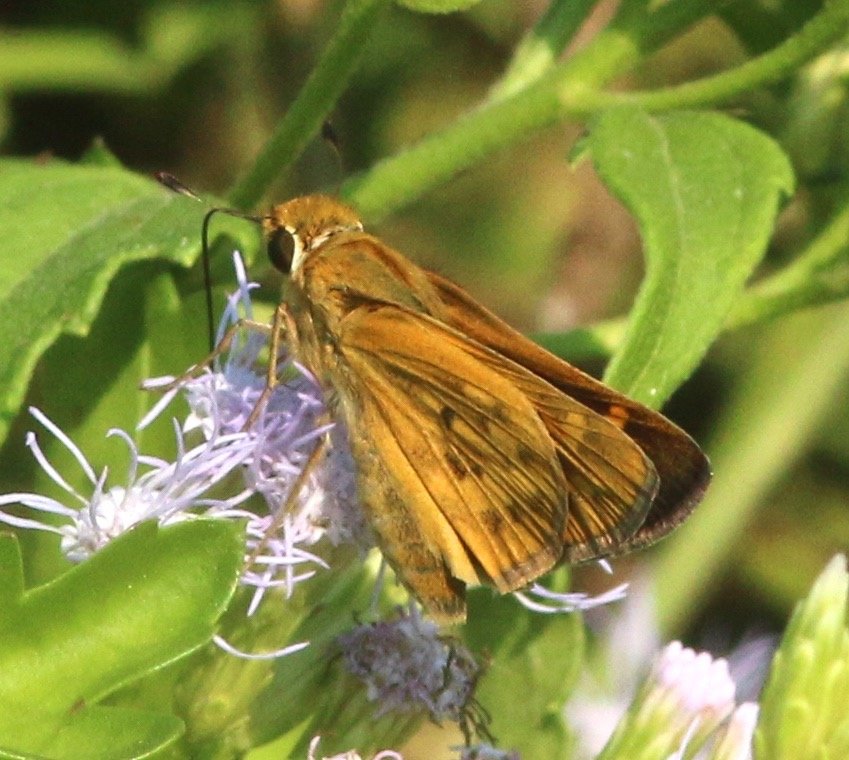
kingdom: Animalia
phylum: Arthropoda
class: Insecta
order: Lepidoptera
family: Hesperiidae
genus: Hylephila
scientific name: Hylephila phyleus
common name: Fiery Skipper
